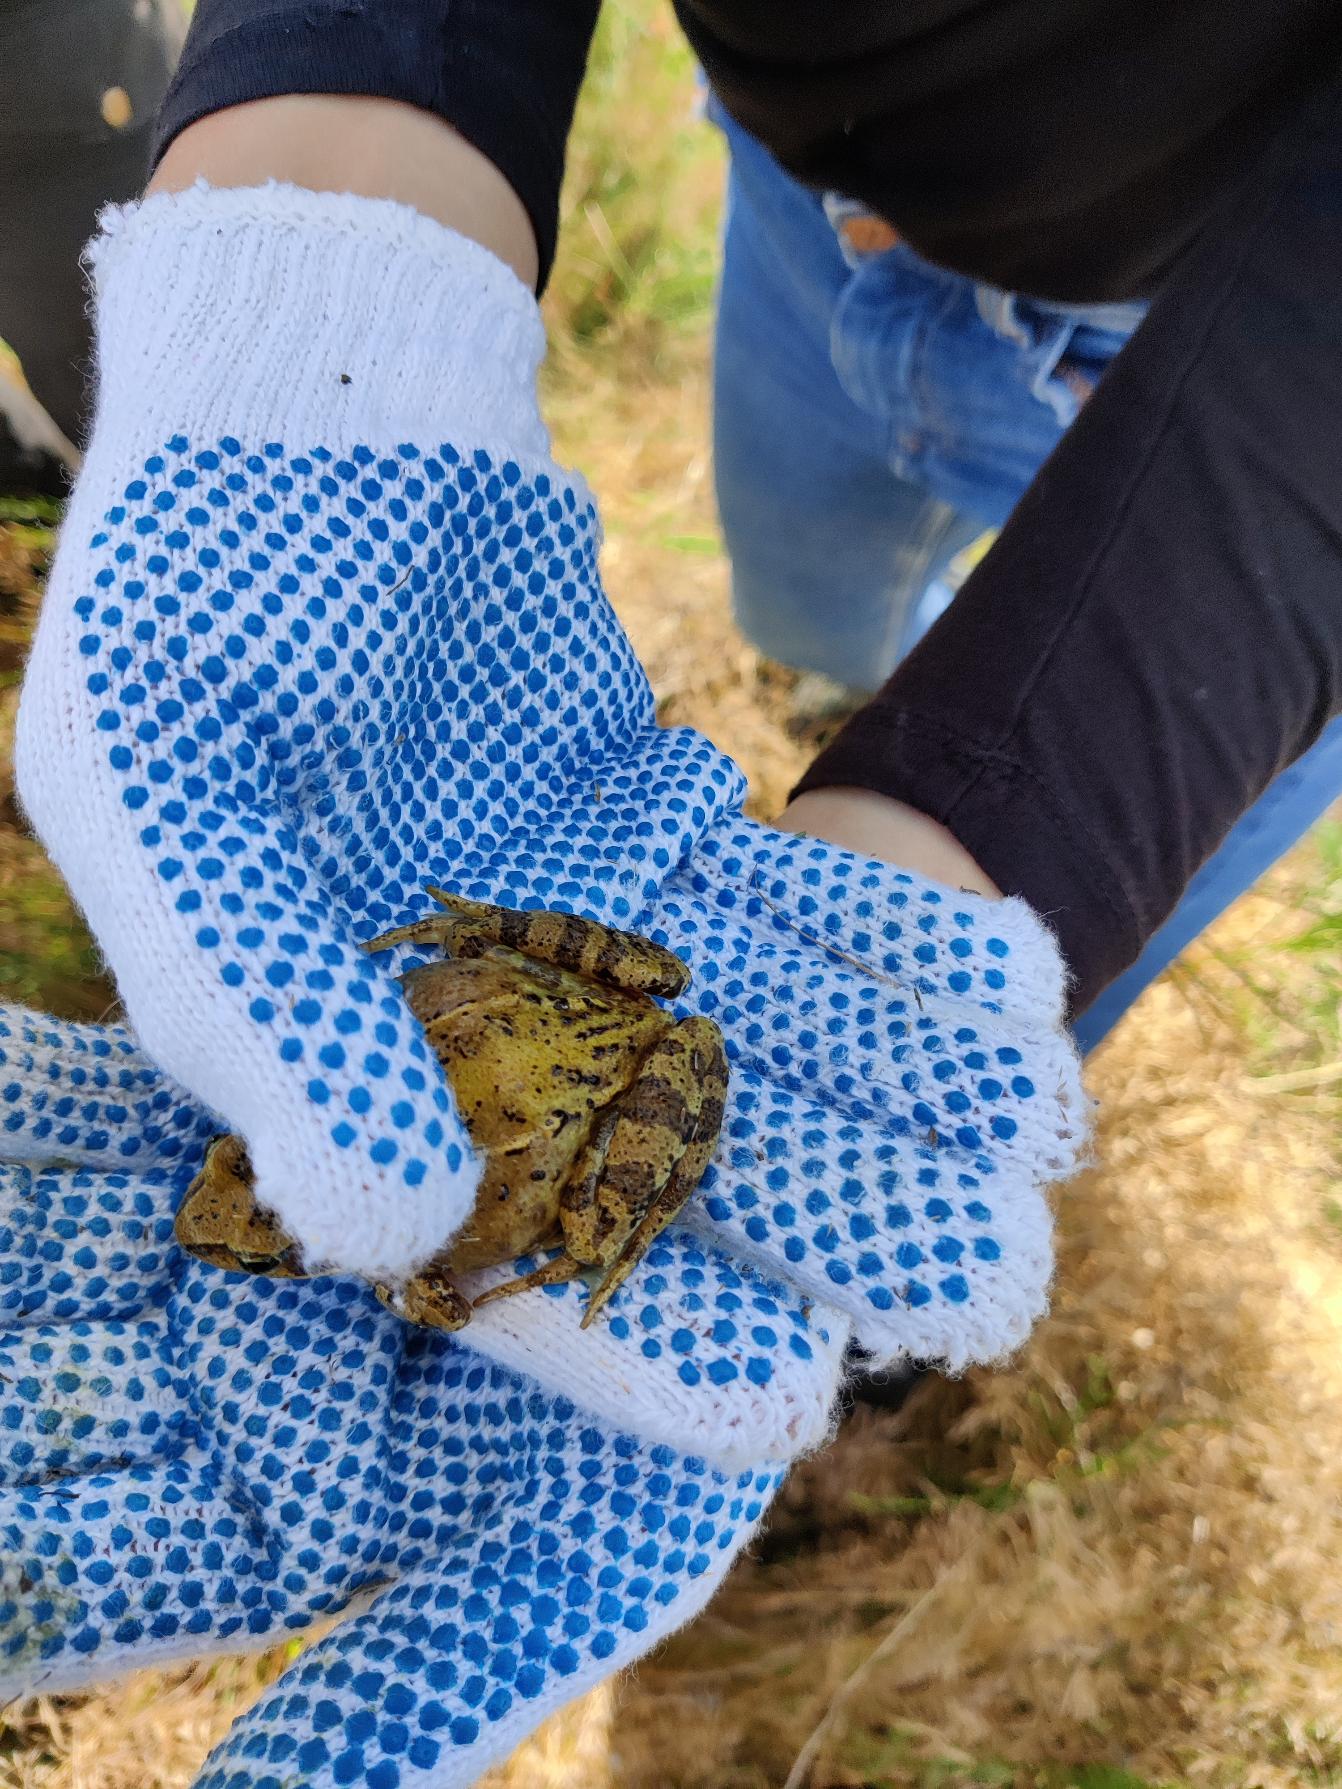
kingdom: Animalia
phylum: Chordata
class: Amphibia
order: Anura
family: Ranidae
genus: Rana
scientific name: Rana temporaria
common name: Butsnudet frø
